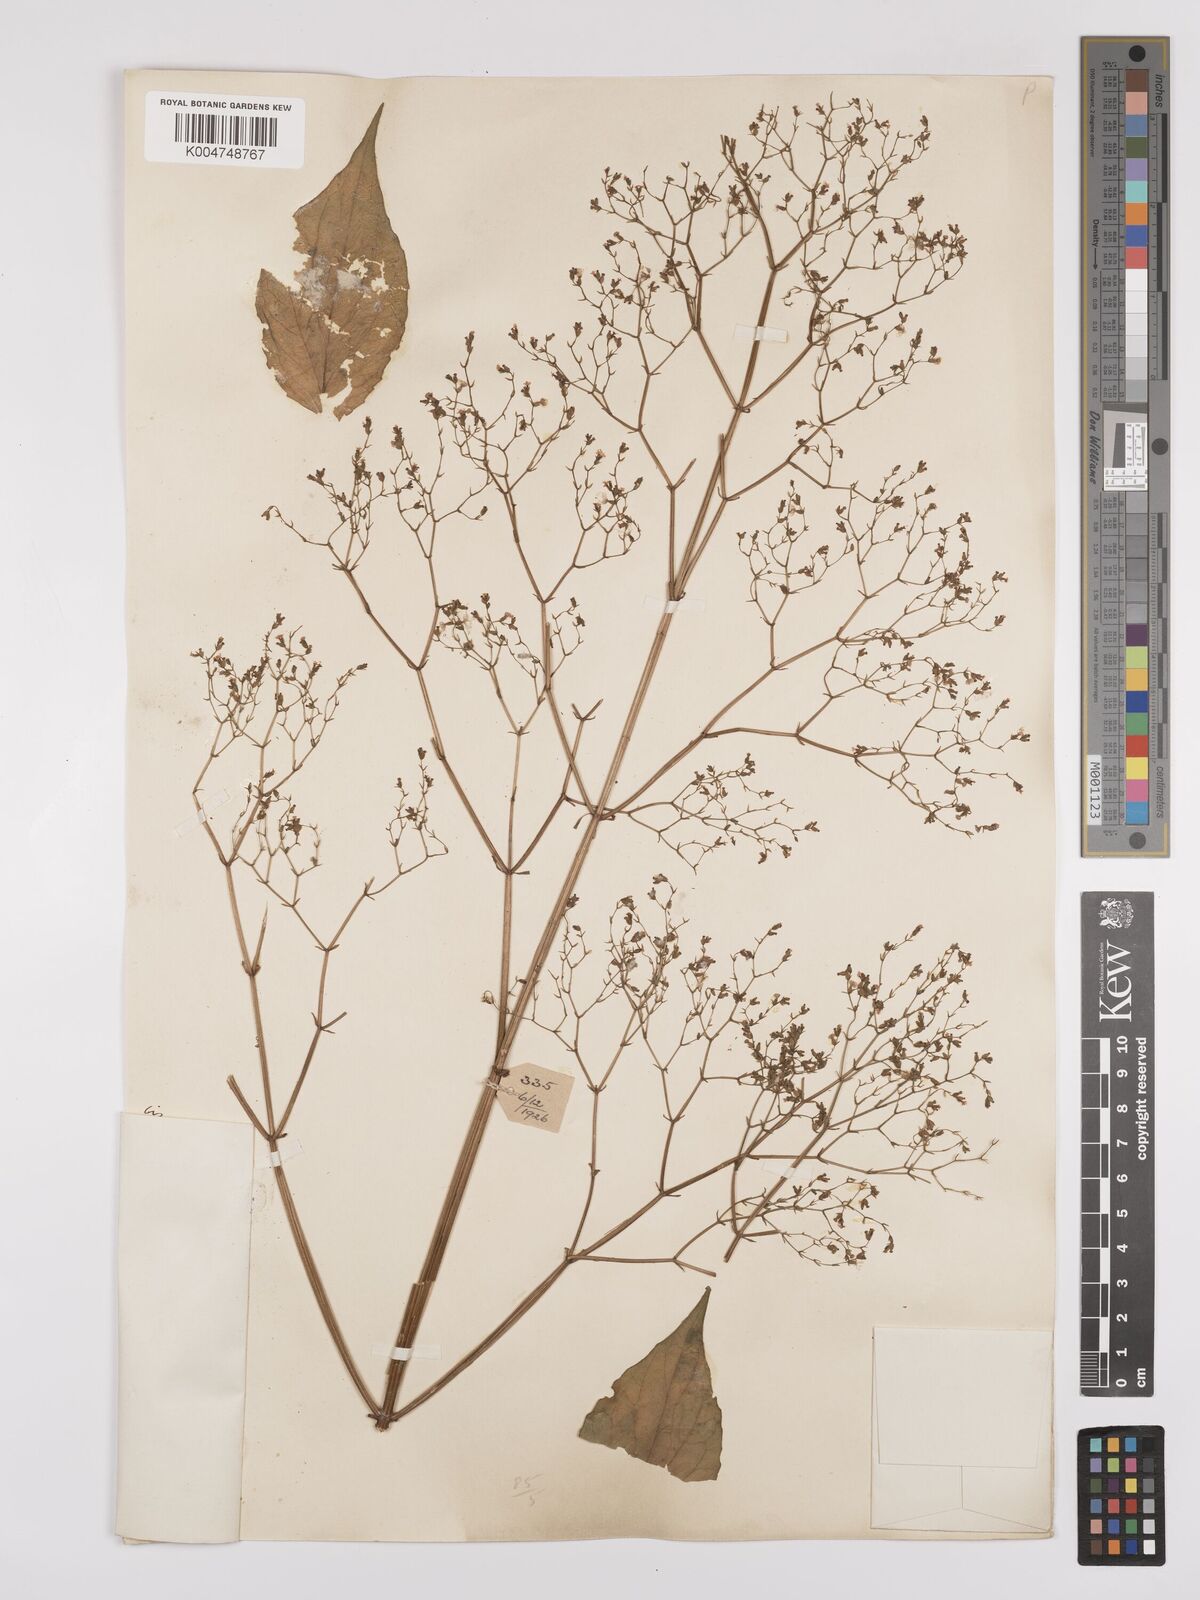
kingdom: Plantae
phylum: Tracheophyta
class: Magnoliopsida
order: Dipsacales
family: Caprifoliaceae
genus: Valeriana
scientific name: Valeriana hardwickei
